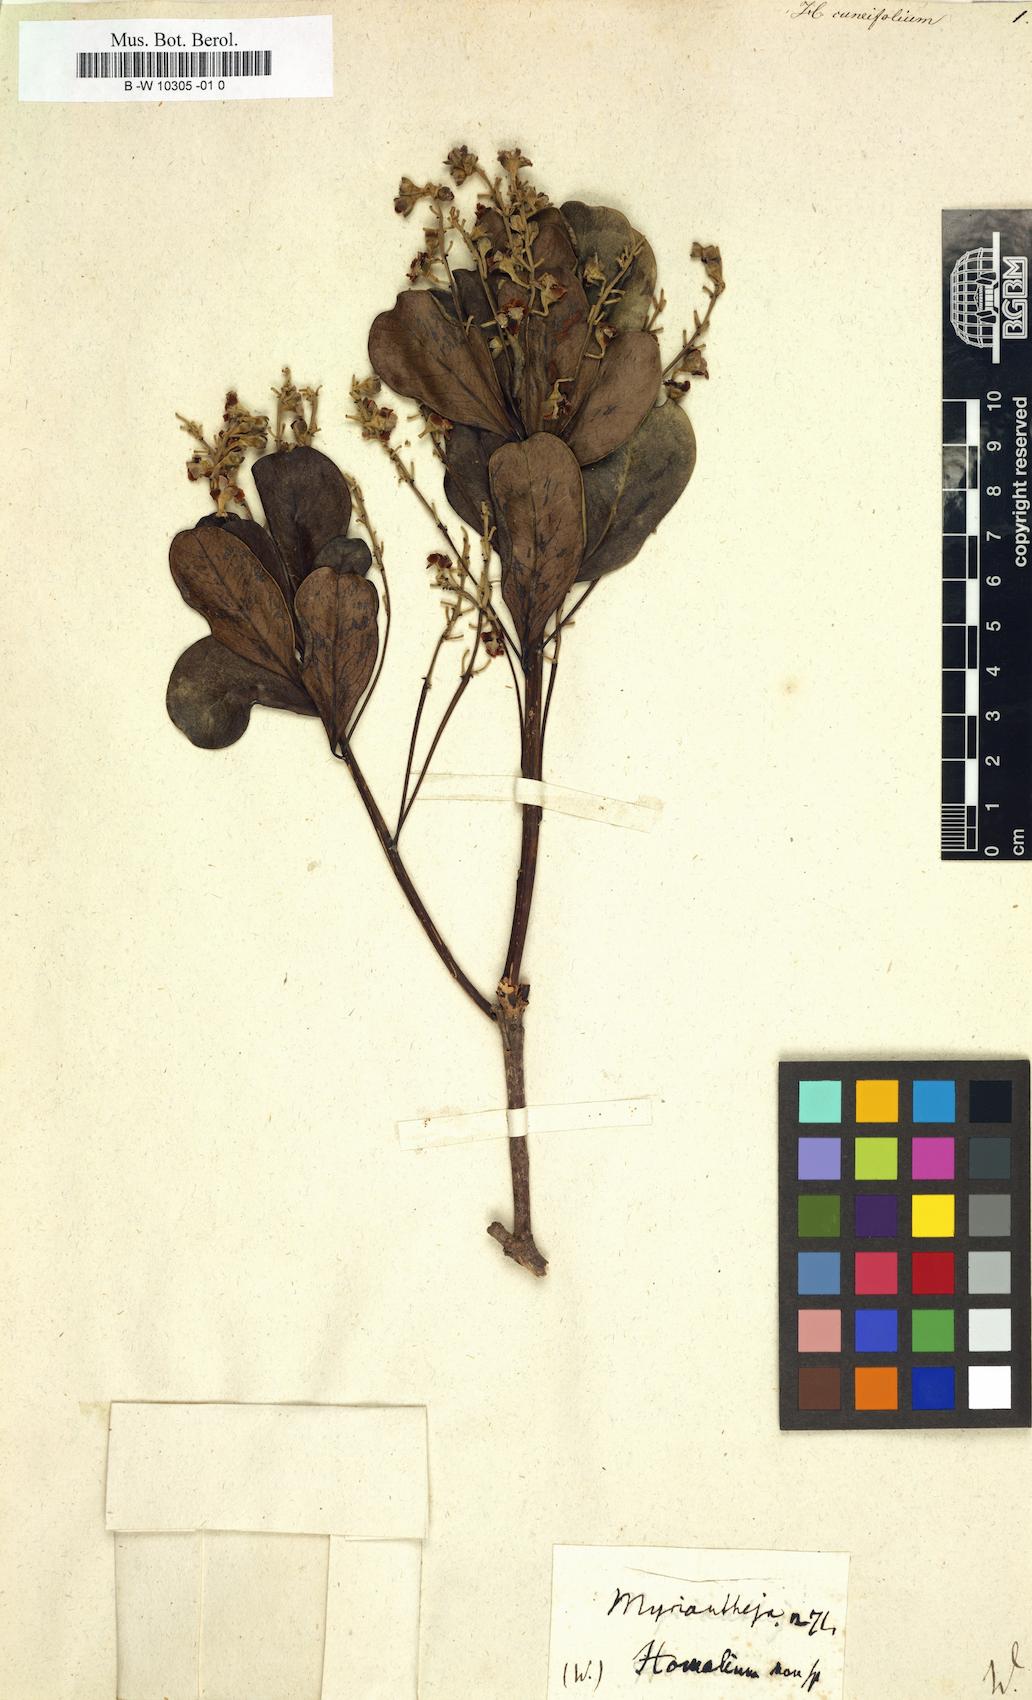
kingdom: Plantae
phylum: Tracheophyta
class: Magnoliopsida
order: Malpighiales
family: Salicaceae
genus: Homalium
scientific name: Homalium racemosum
